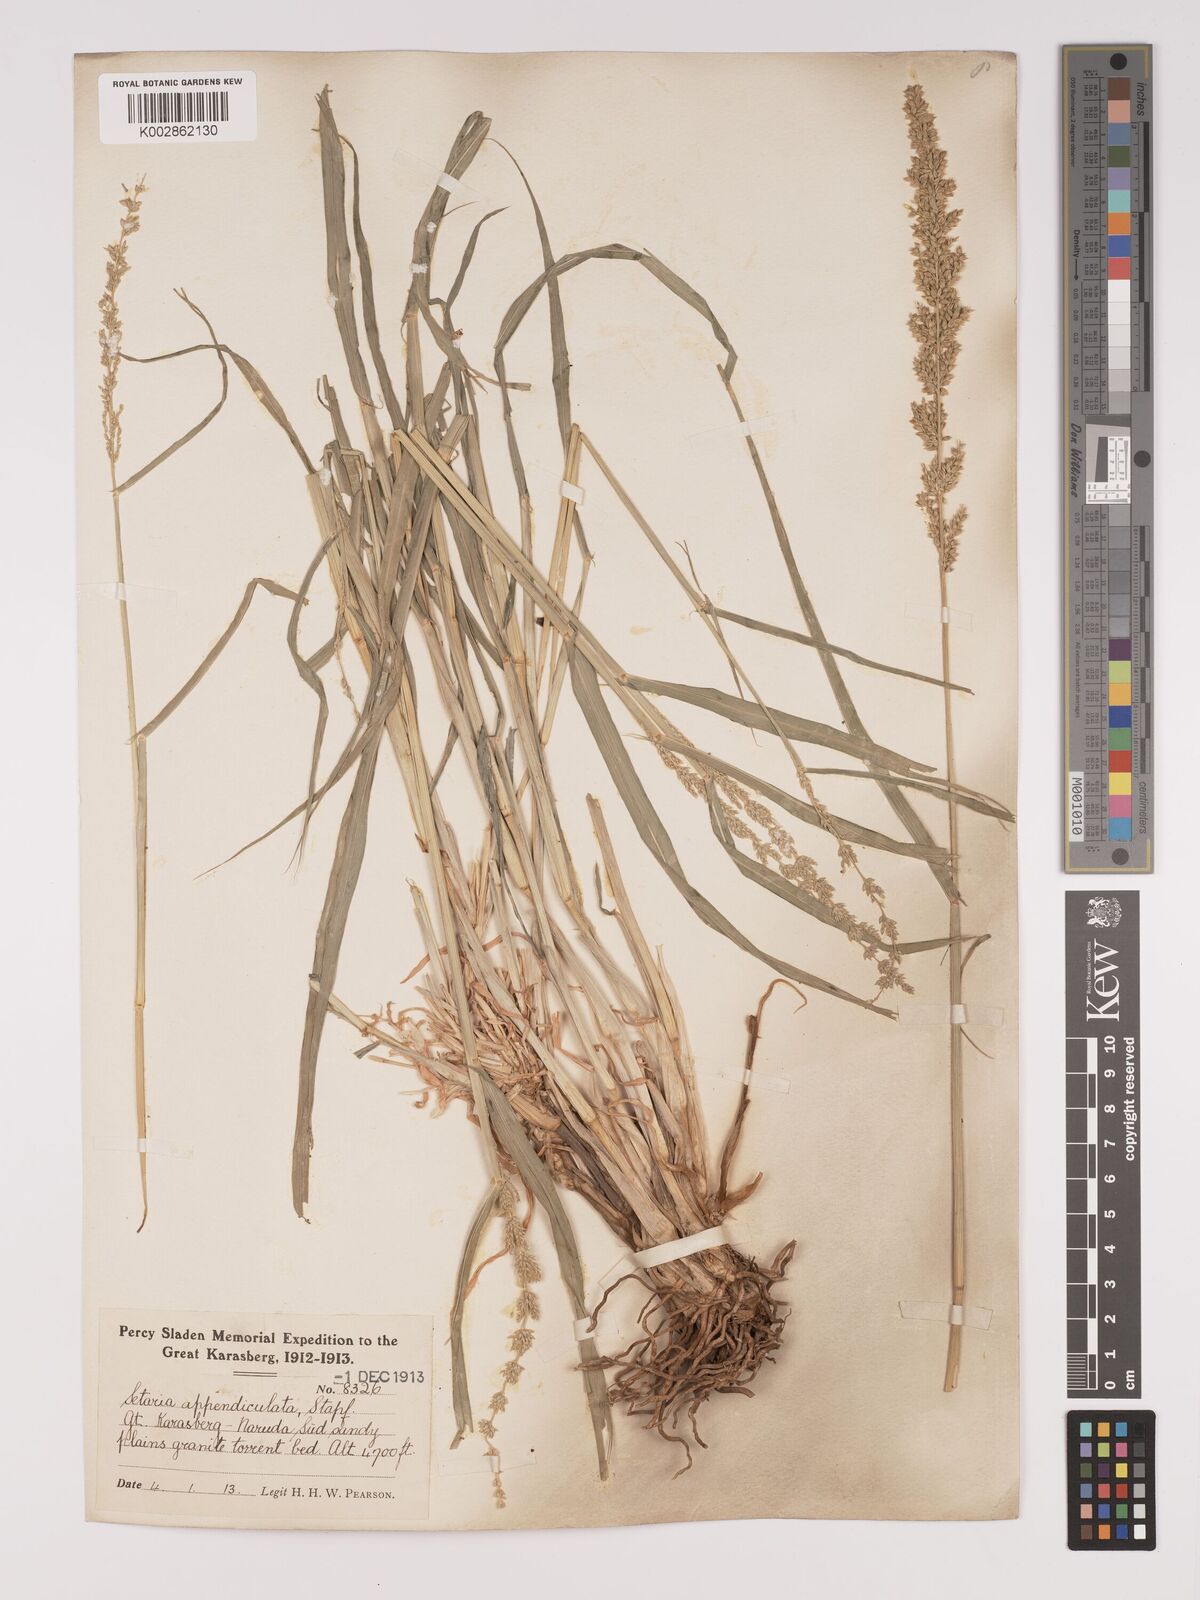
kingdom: Plantae
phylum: Tracheophyta
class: Liliopsida
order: Poales
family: Poaceae
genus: Setaria
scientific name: Setaria appendiculata
